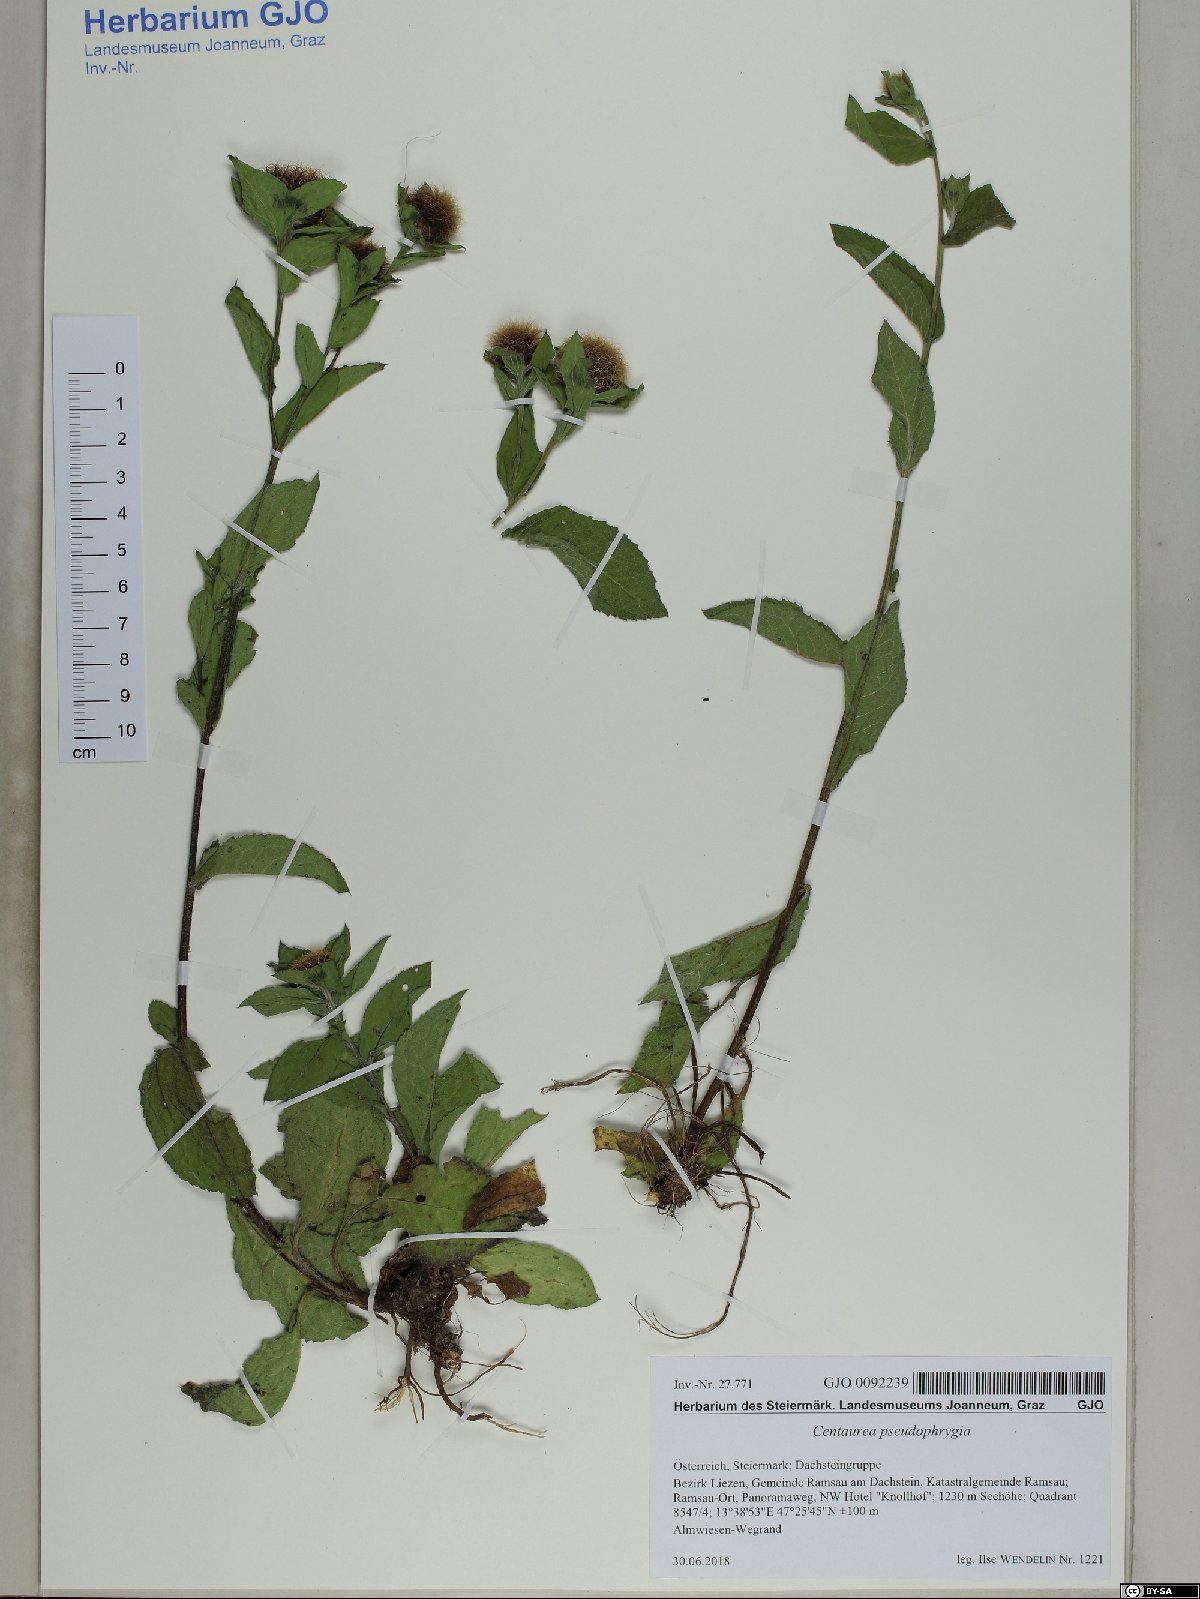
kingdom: Plantae
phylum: Tracheophyta
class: Magnoliopsida
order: Asterales
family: Asteraceae
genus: Centaurea
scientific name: Centaurea pseudophrygia
